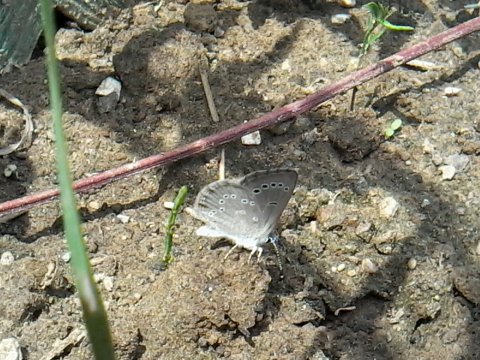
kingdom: Animalia
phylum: Arthropoda
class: Insecta
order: Lepidoptera
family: Lycaenidae
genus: Glaucopsyche
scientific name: Glaucopsyche lygdamus
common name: Silvery Blue
